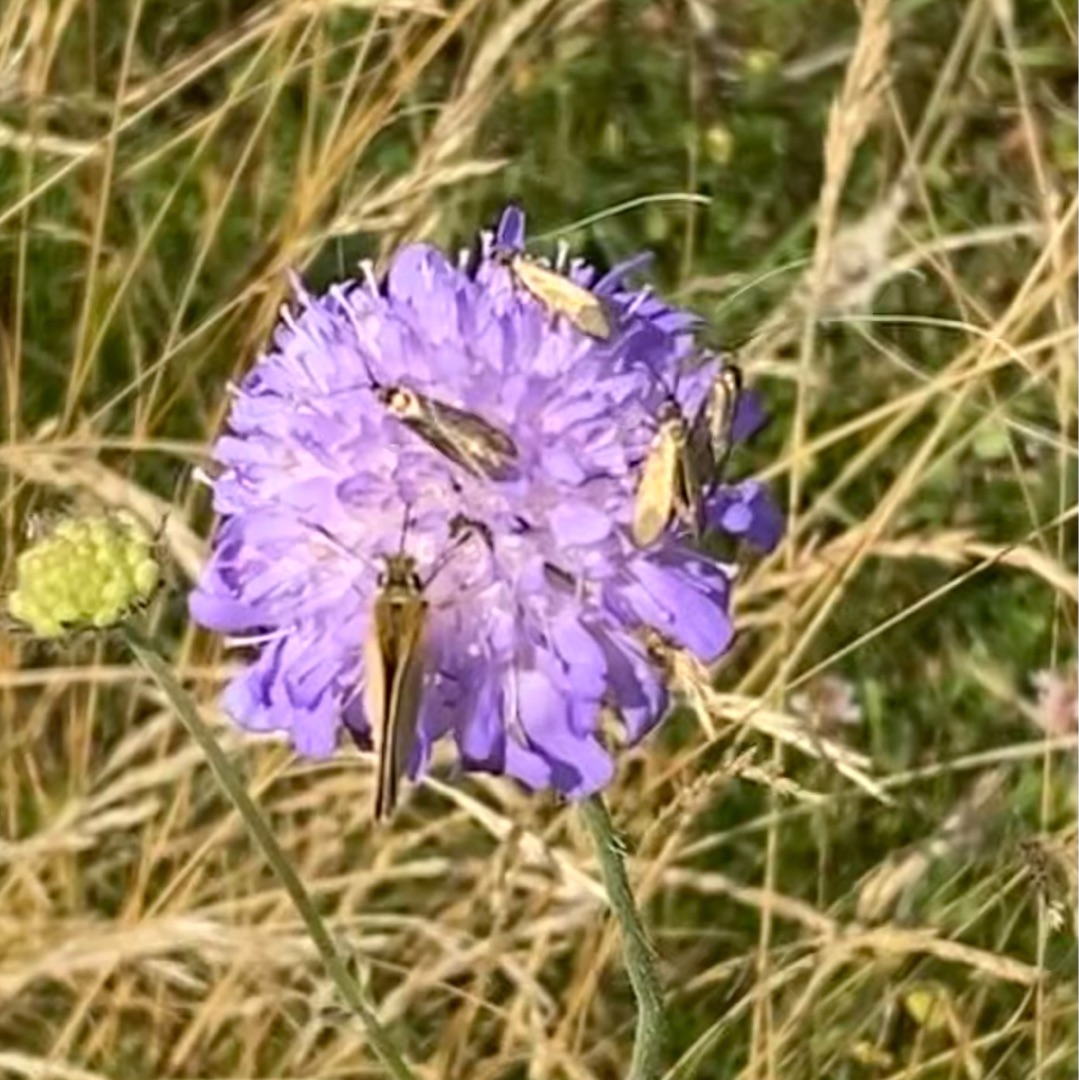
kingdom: Animalia
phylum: Arthropoda
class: Insecta
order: Lepidoptera
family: Adelidae
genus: Nemophora
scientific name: Nemophora cupriacella
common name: Blåhatlanghornsmøl
